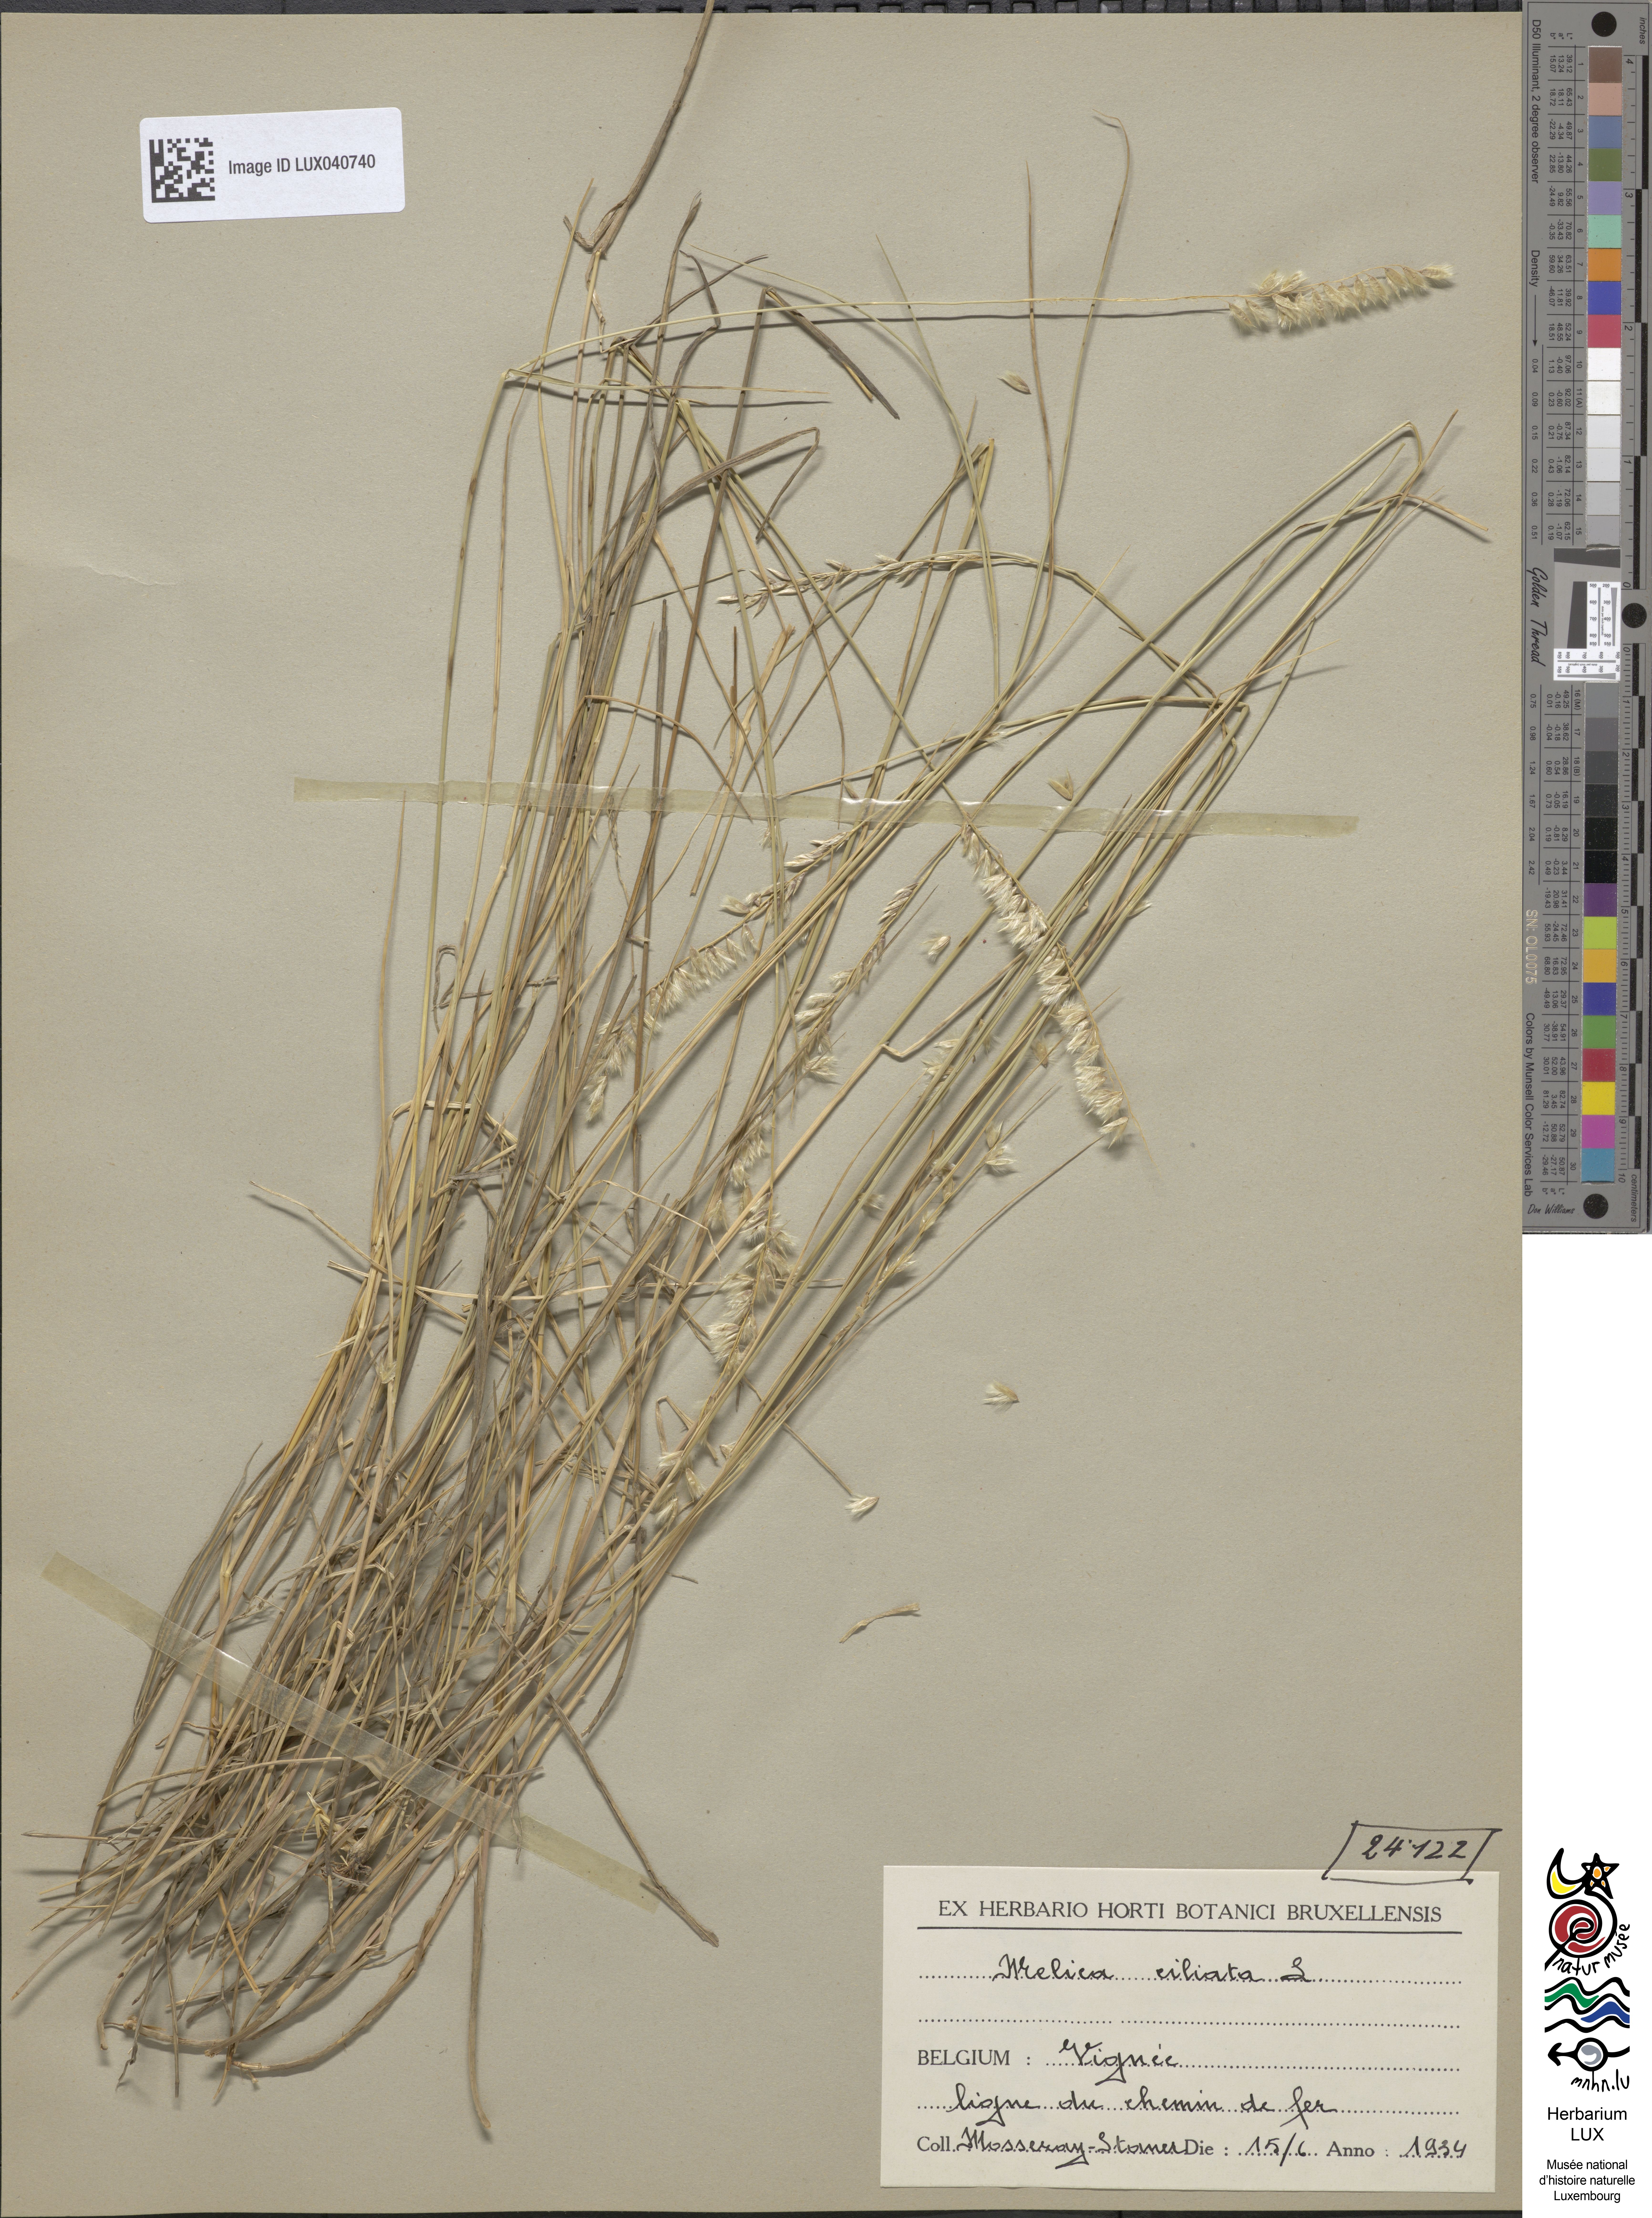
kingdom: Plantae
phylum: Tracheophyta
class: Liliopsida
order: Poales
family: Poaceae
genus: Melica
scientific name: Melica ciliata
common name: Hairy melicgrass
